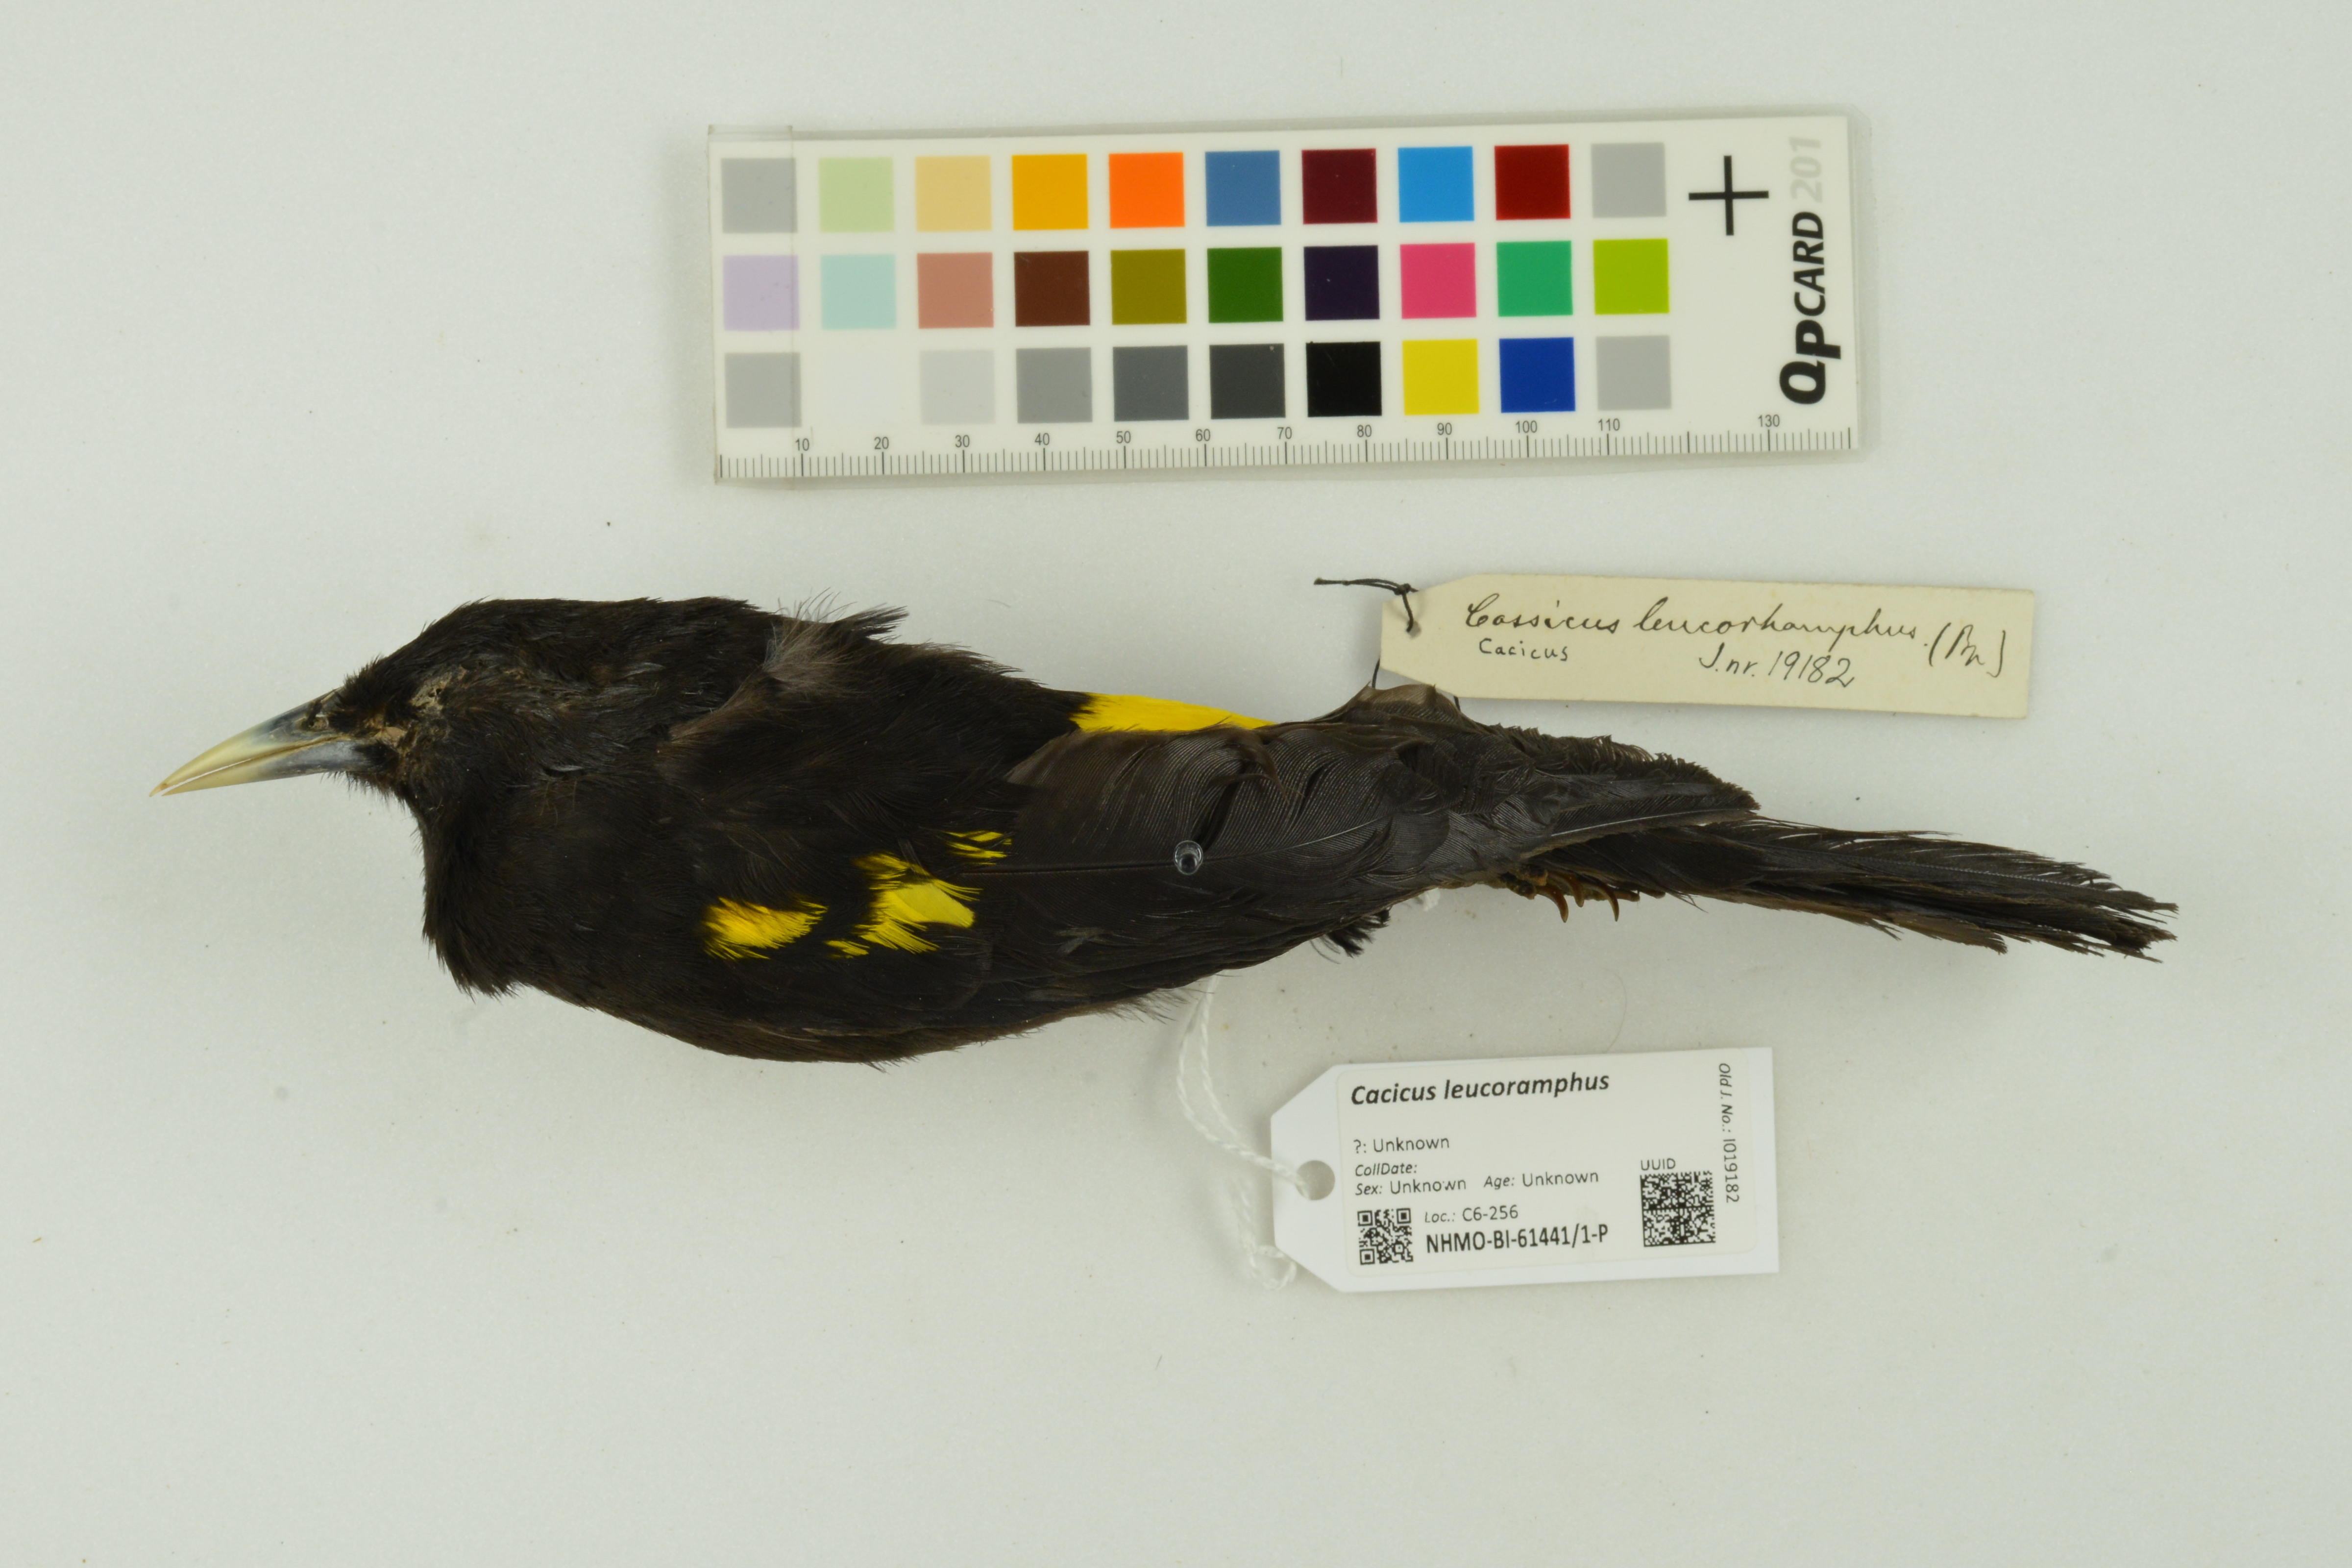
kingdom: Animalia
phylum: Chordata
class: Aves
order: Passeriformes
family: Icteridae
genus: Cacicus
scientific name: Cacicus chrysonotus
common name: Southern mountain cacique
